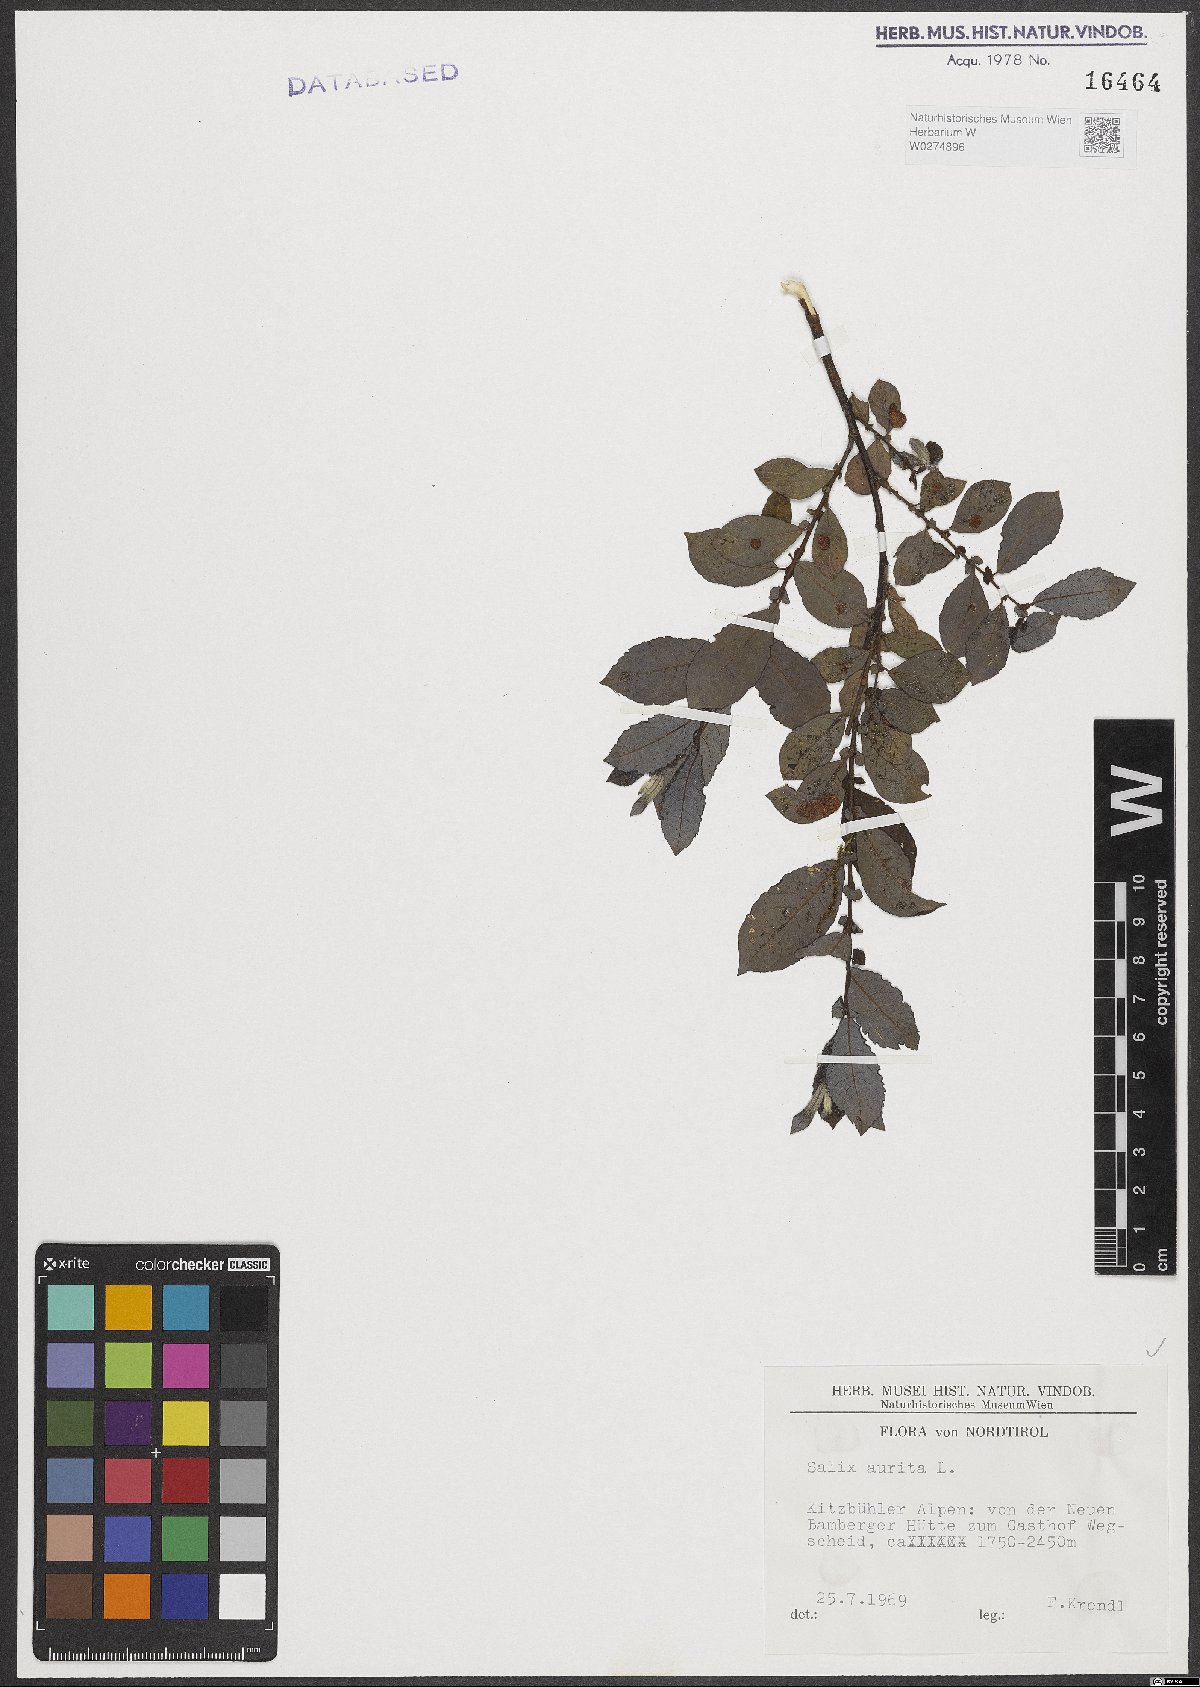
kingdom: Plantae
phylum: Tracheophyta
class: Magnoliopsida
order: Malpighiales
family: Salicaceae
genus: Salix
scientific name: Salix aurita
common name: Eared willow
